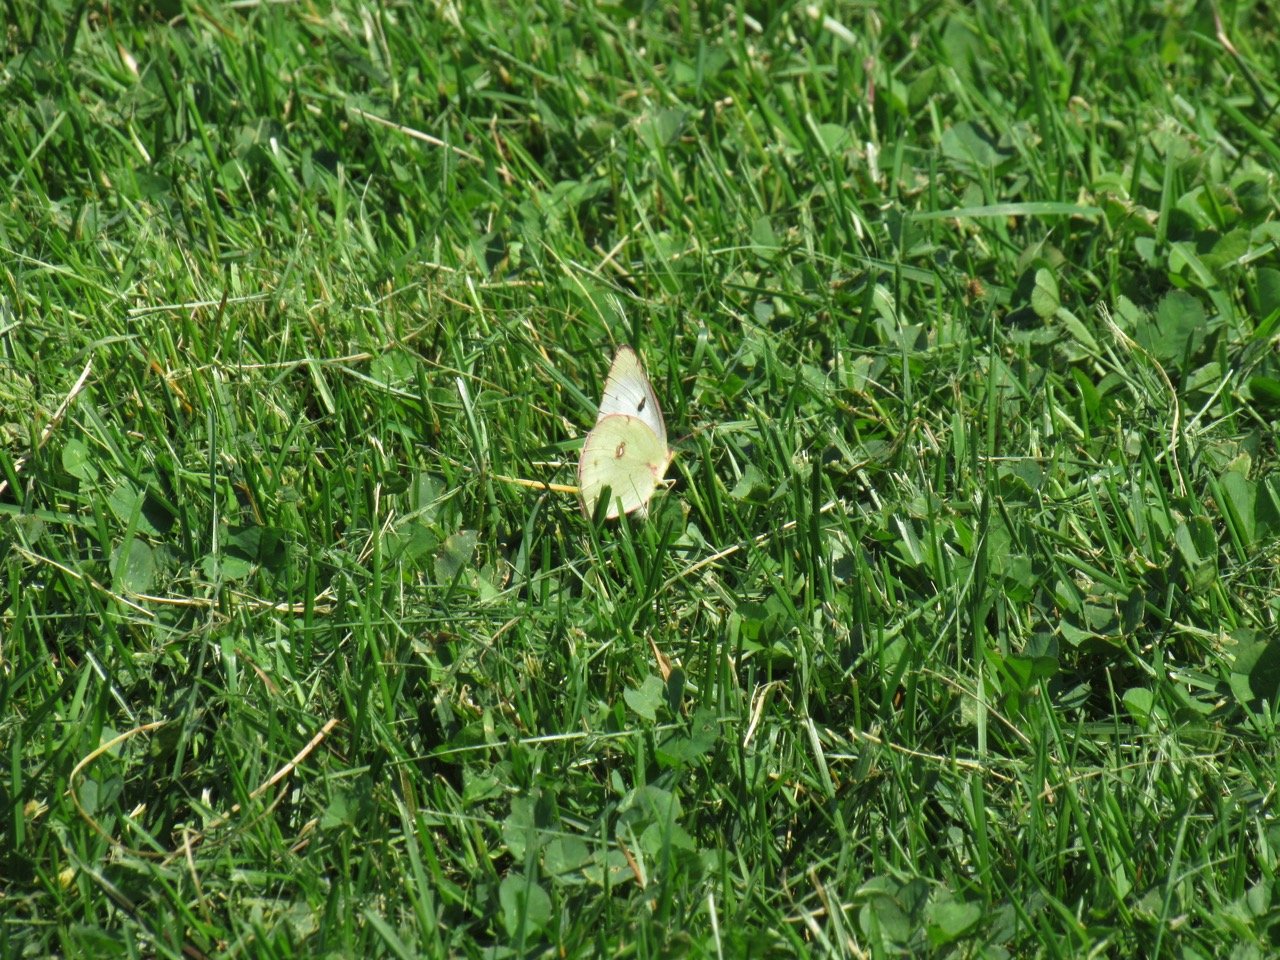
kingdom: Animalia
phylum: Arthropoda
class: Insecta
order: Lepidoptera
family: Pieridae
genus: Colias
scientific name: Colias philodice
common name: Clouded Sulphur
